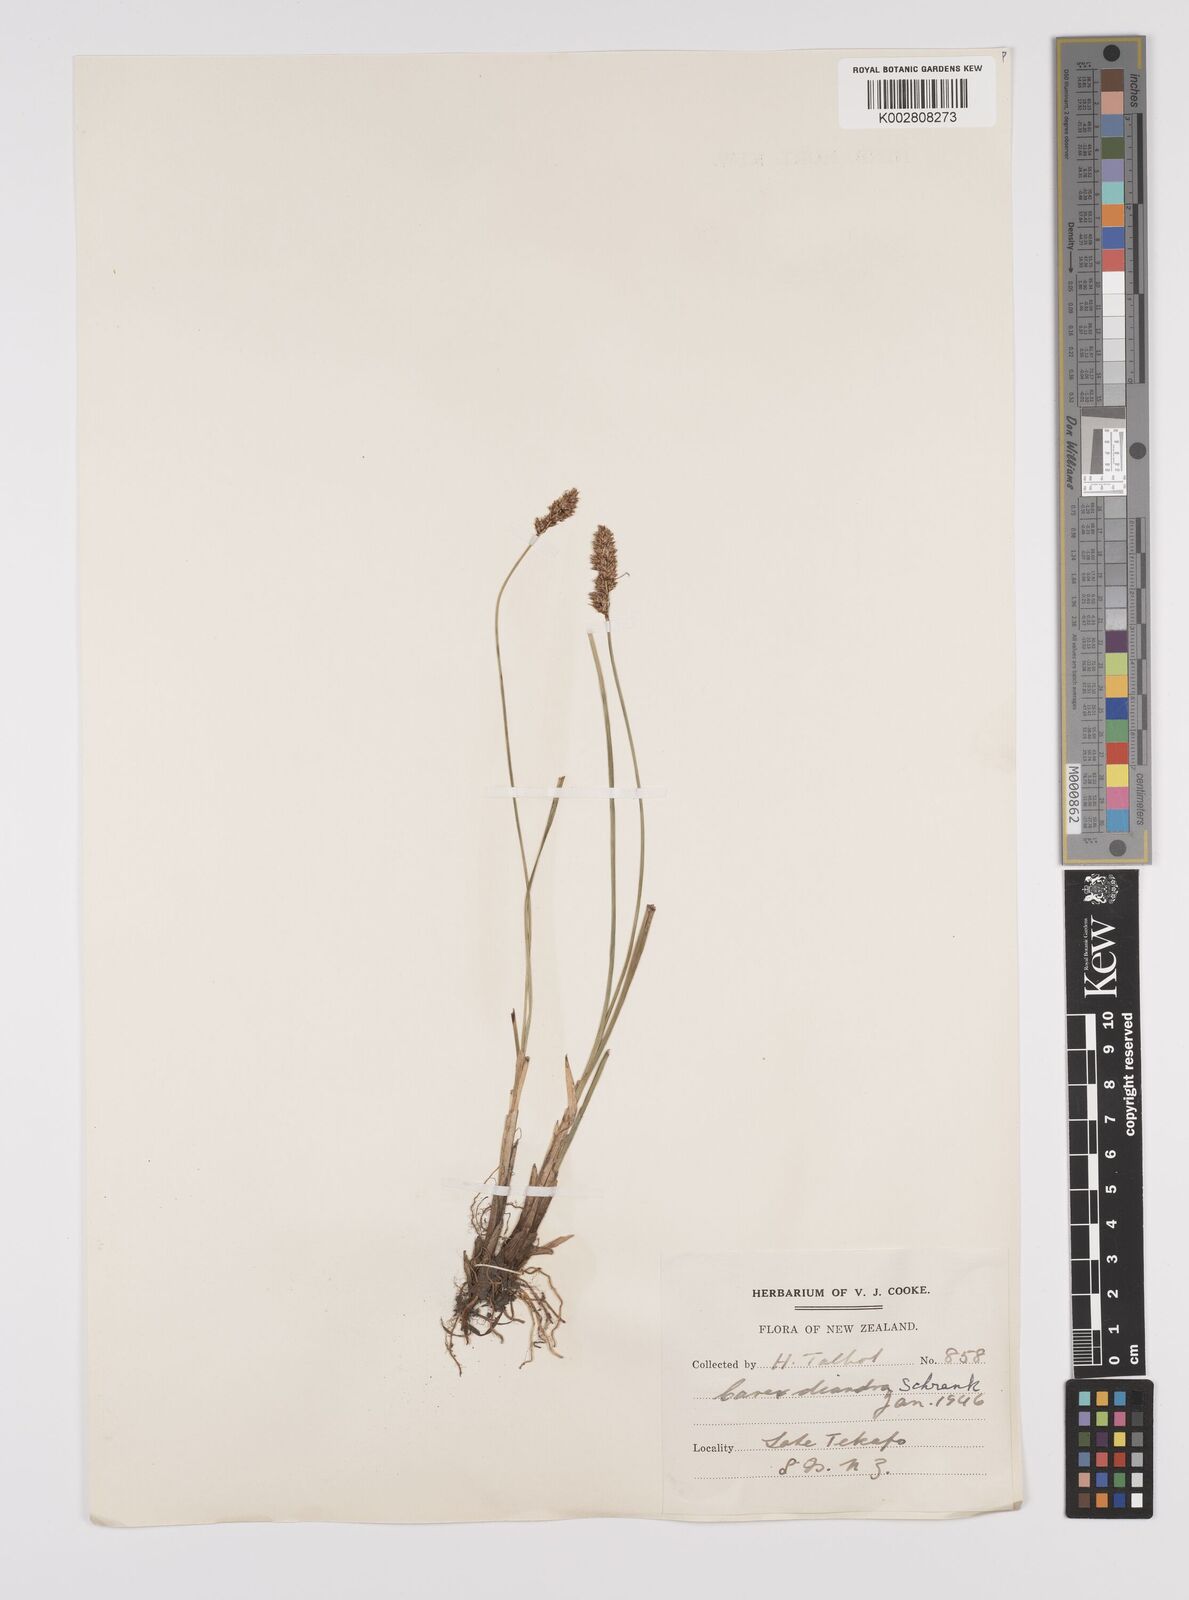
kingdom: Plantae
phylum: Tracheophyta
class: Liliopsida
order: Poales
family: Cyperaceae
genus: Carex
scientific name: Carex diandra
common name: Lesser tussock-sedge
